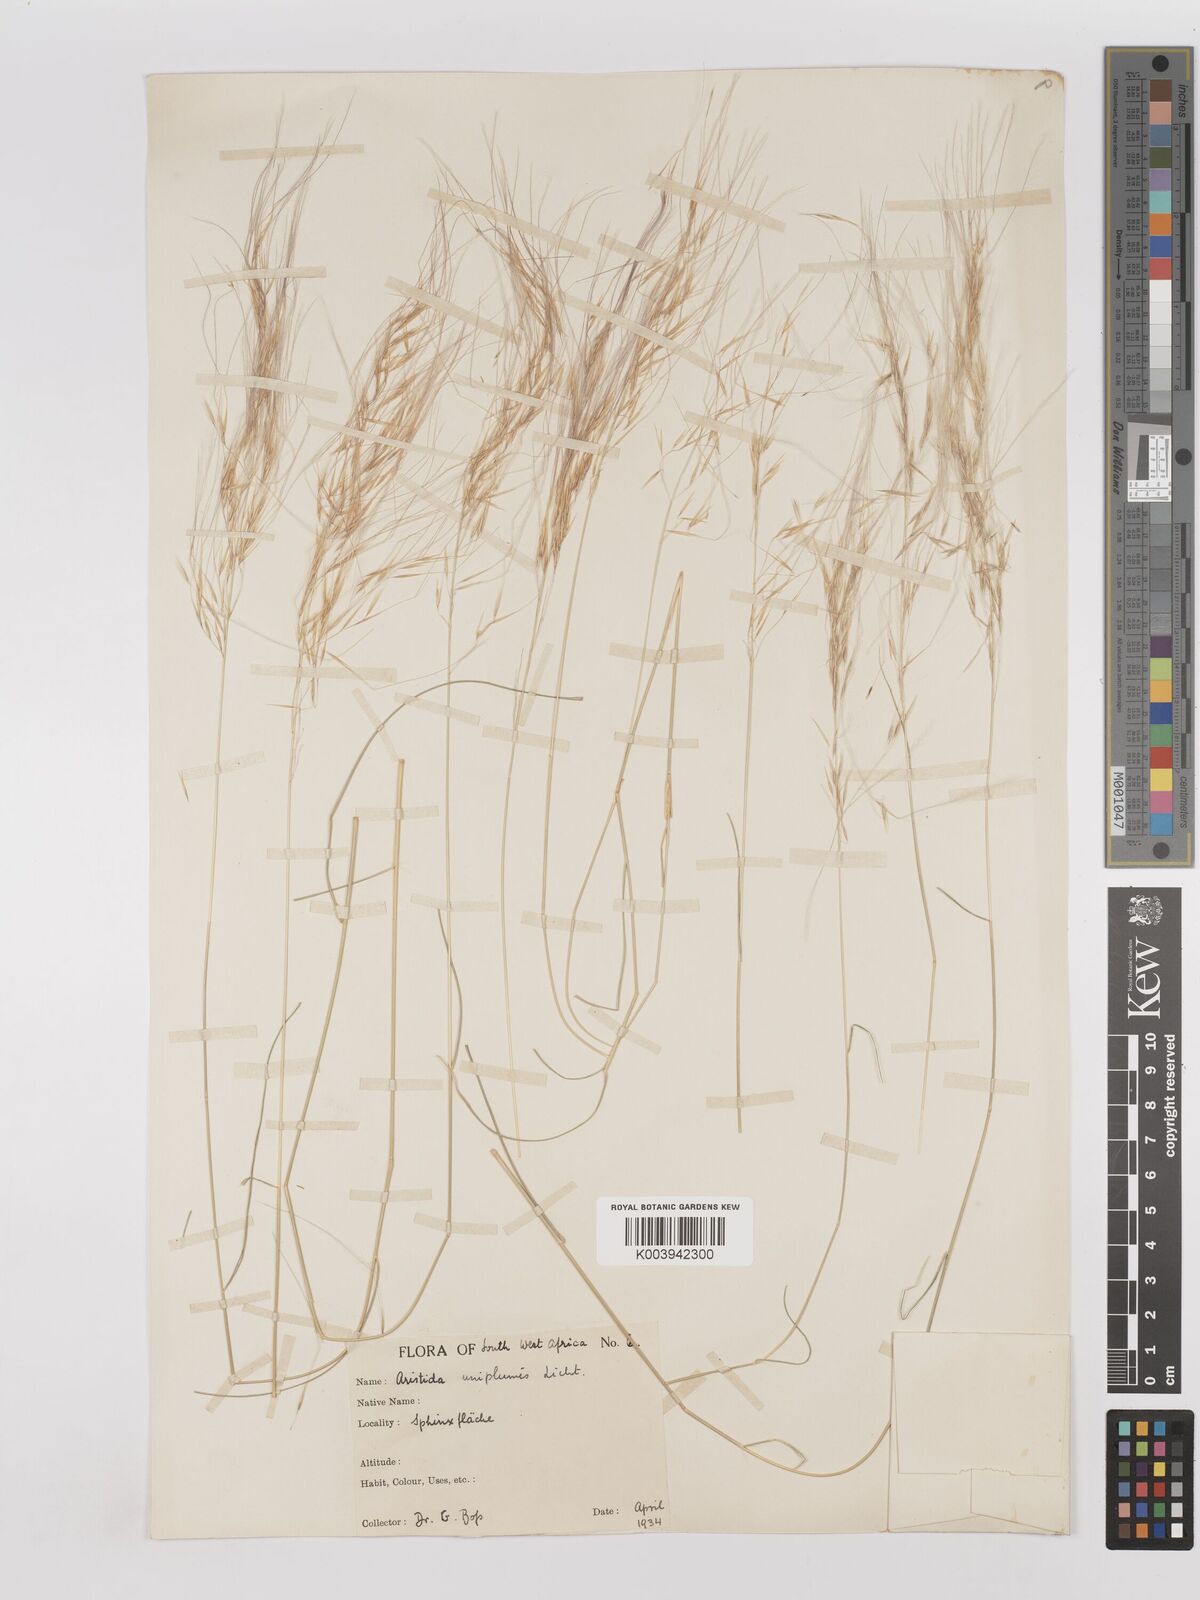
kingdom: Plantae
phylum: Tracheophyta
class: Liliopsida
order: Poales
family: Poaceae
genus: Stipagrostis
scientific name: Stipagrostis uniplumis
